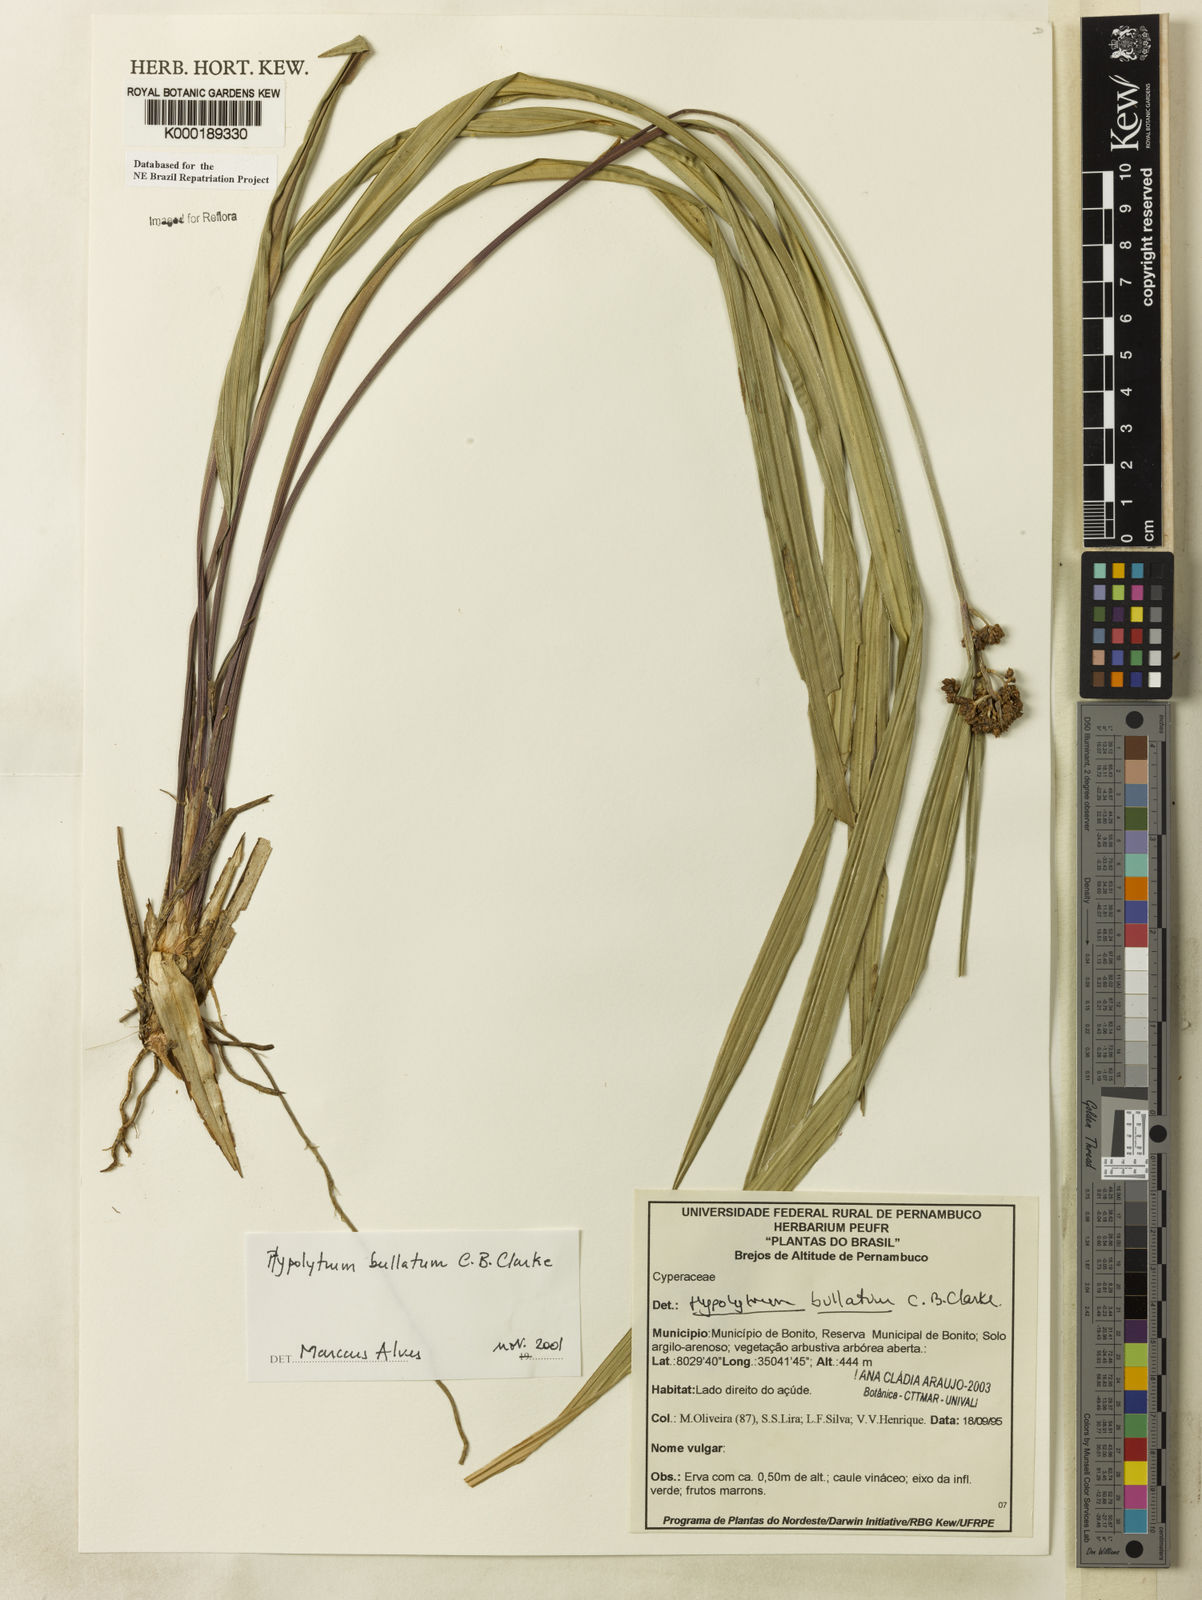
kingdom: Plantae
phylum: Tracheophyta
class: Liliopsida
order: Poales
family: Cyperaceae
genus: Hypolytrum
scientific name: Hypolytrum bullatum
